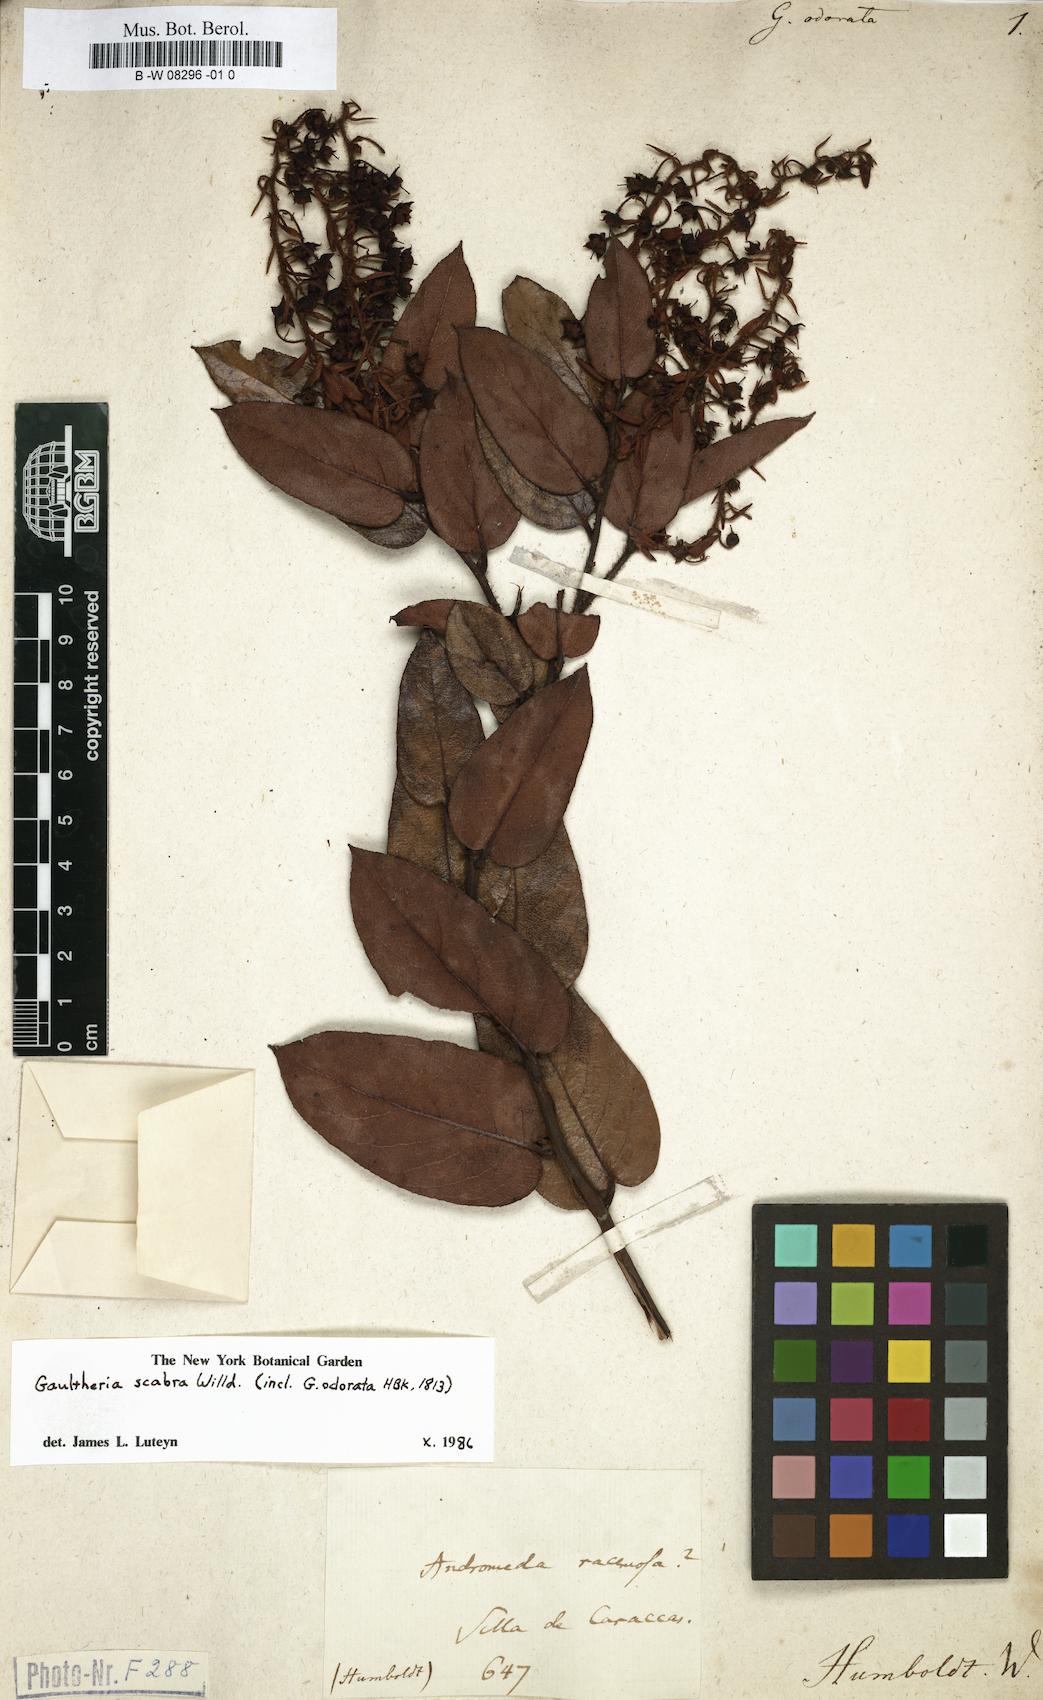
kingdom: Plantae
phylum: Tracheophyta
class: Magnoliopsida
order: Ericales
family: Ericaceae
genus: Gaultheria
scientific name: Gaultheria
